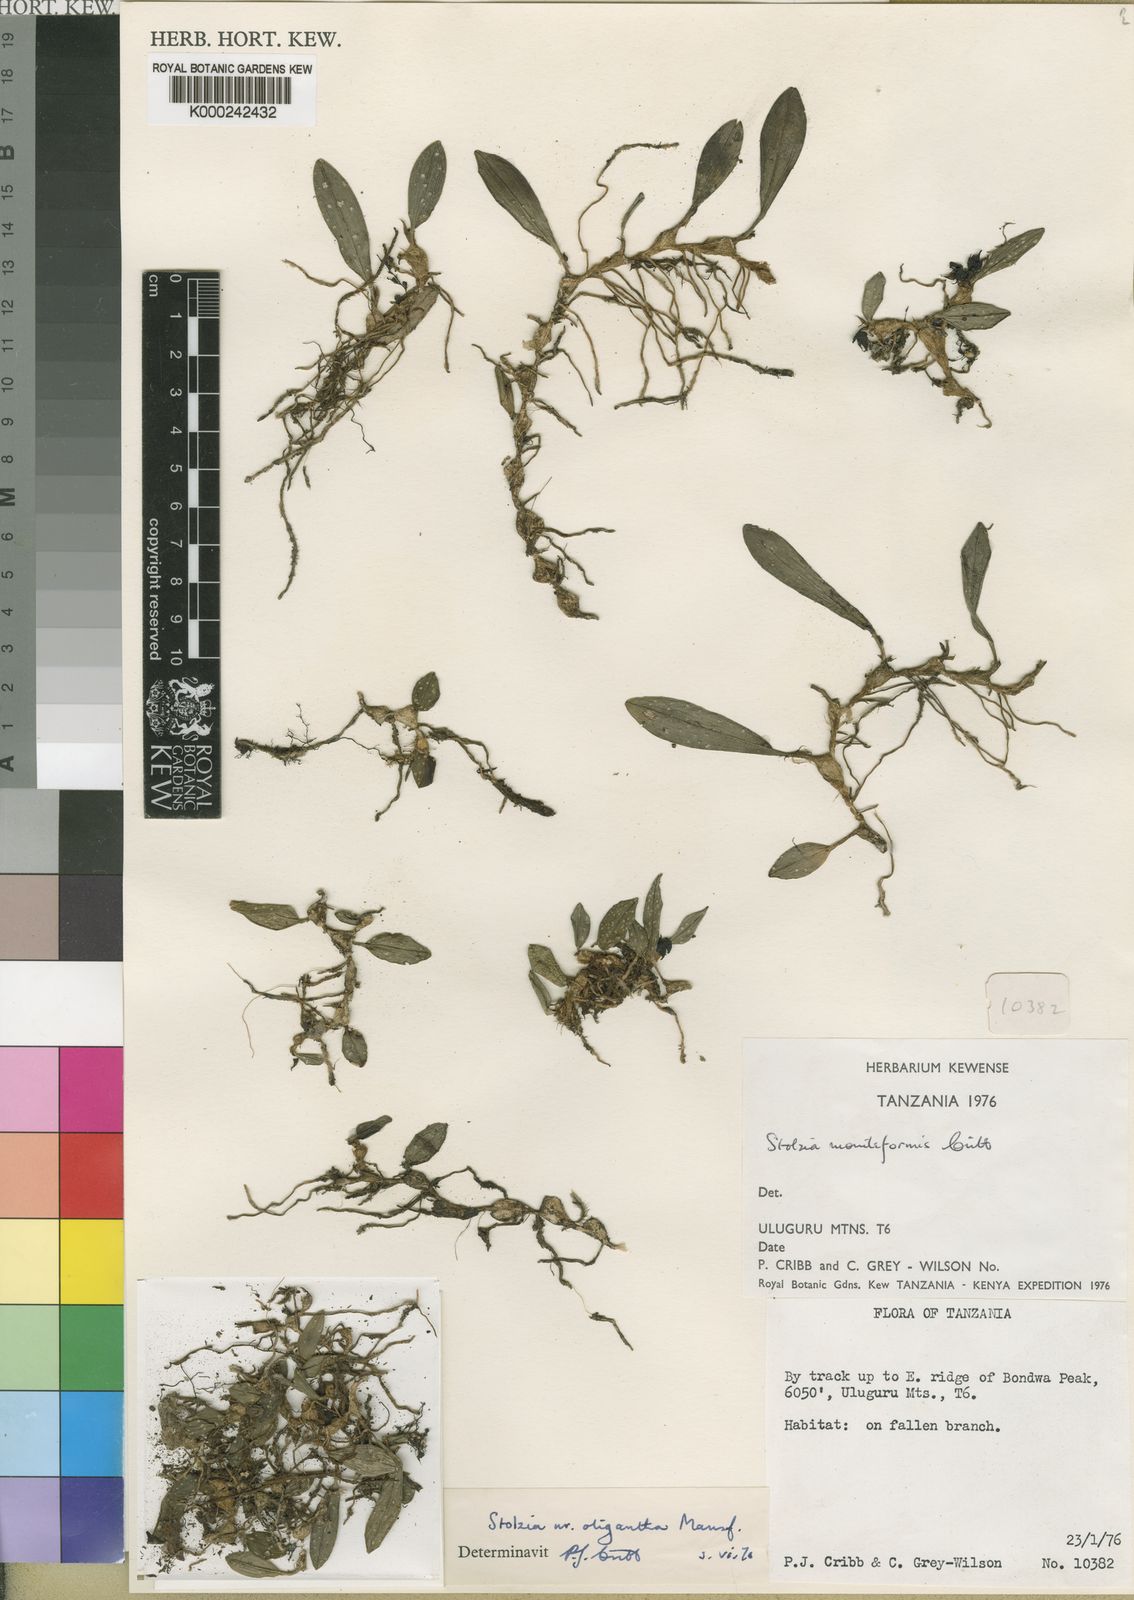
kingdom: Plantae
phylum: Tracheophyta
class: Liliopsida
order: Asparagales
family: Orchidaceae
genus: Porpax
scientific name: Porpax moniliformis
